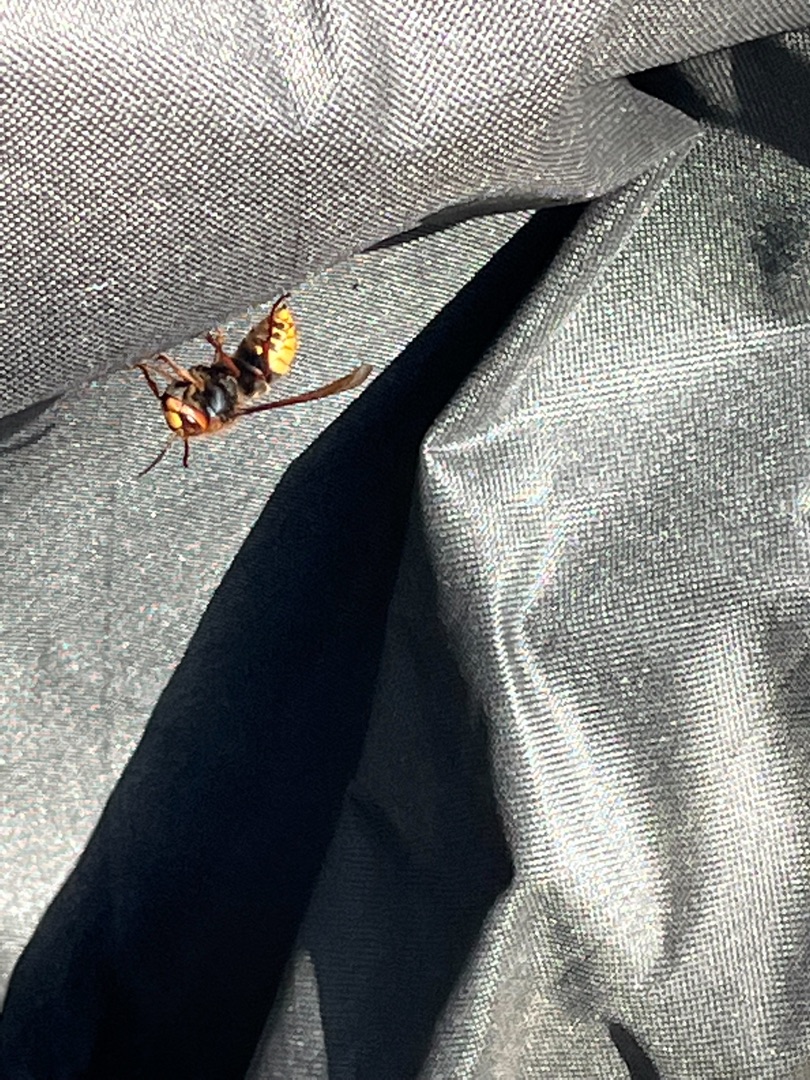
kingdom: Animalia
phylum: Arthropoda
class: Insecta
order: Hymenoptera
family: Vespidae
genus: Vespa
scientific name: Vespa crabro
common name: Stor gedehams
